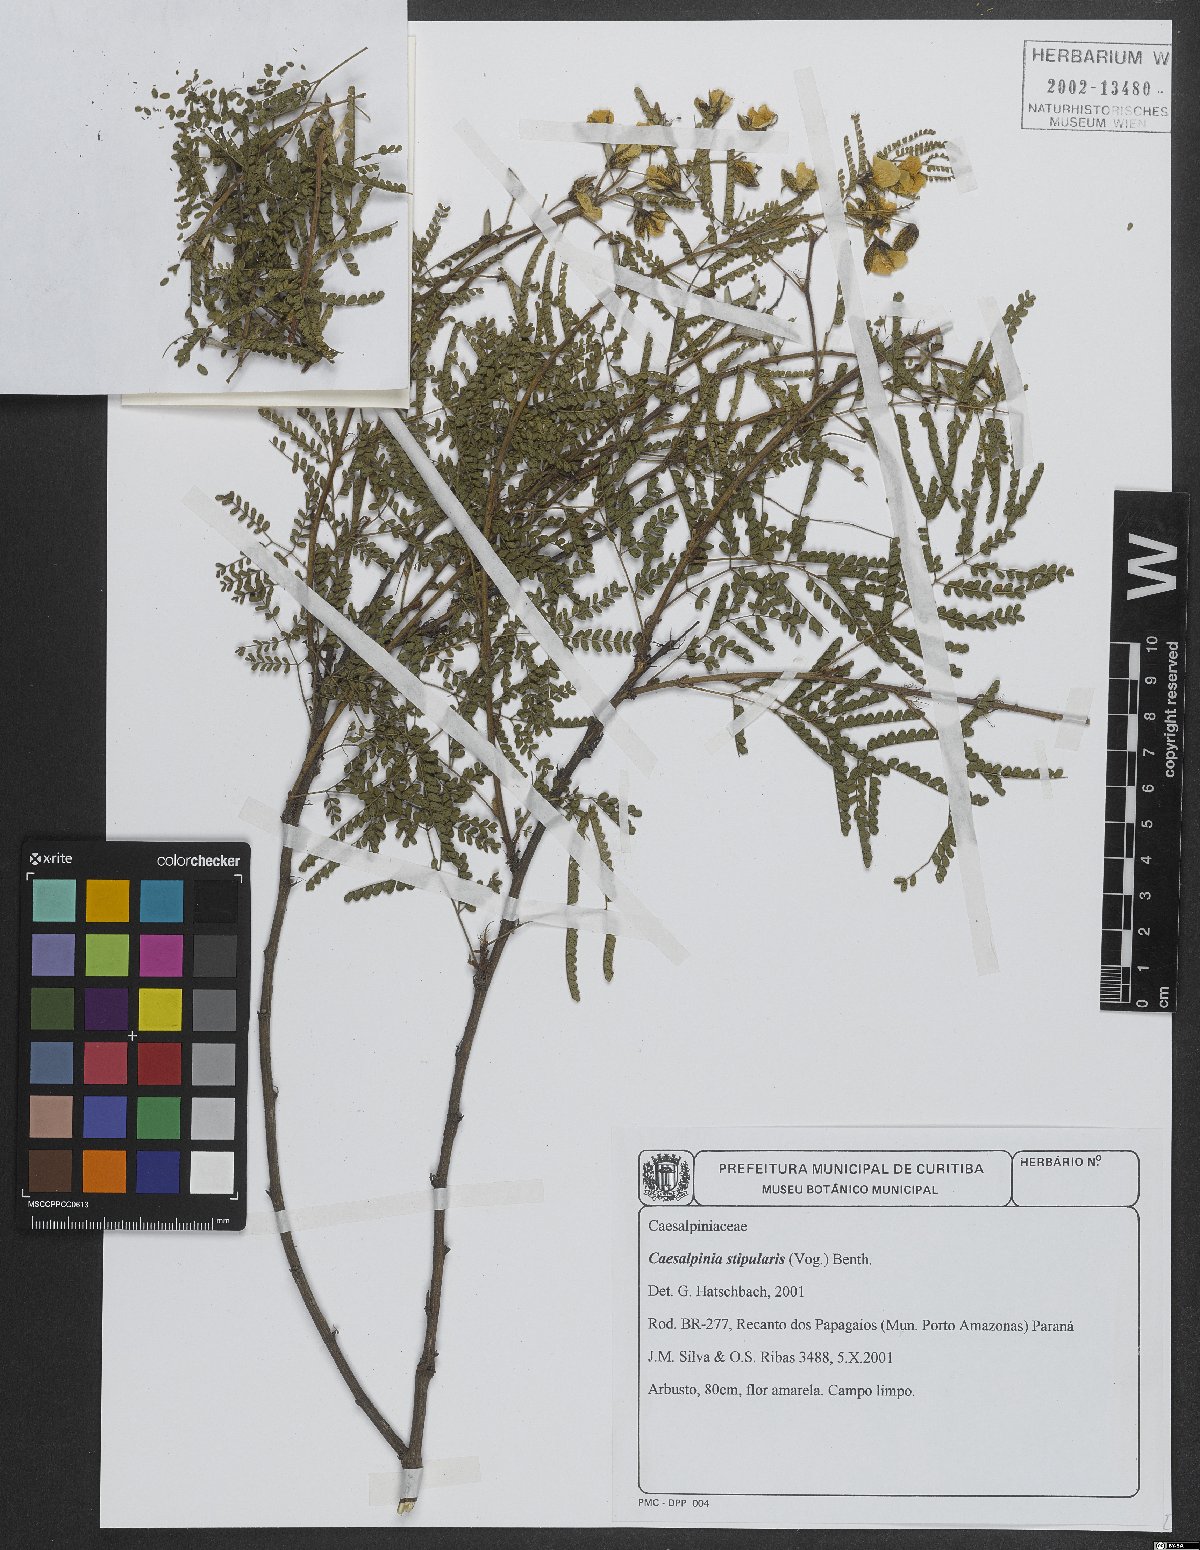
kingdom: Plantae
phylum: Tracheophyta
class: Magnoliopsida
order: Fabales
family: Fabaceae
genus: Pomaria
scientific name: Pomaria stipularis
